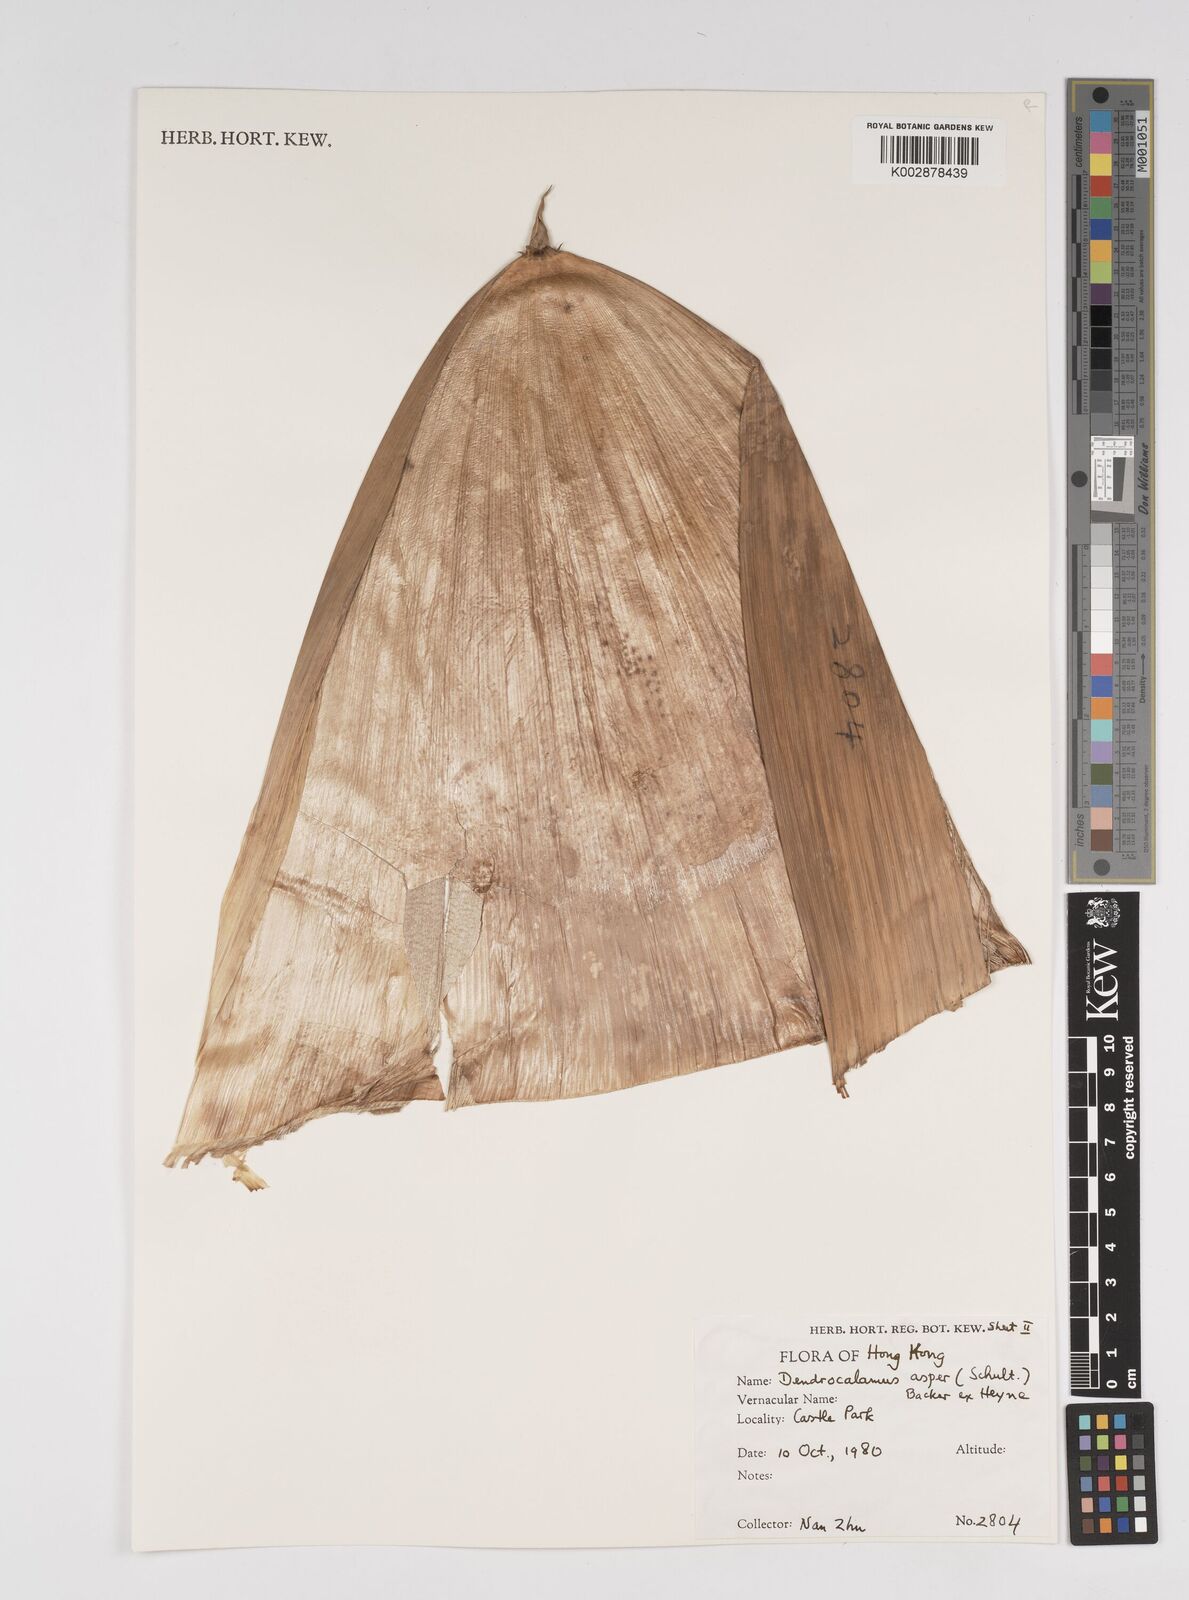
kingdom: Plantae
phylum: Tracheophyta
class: Liliopsida
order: Poales
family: Poaceae
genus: Dendrocalamus
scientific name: Dendrocalamus asper
